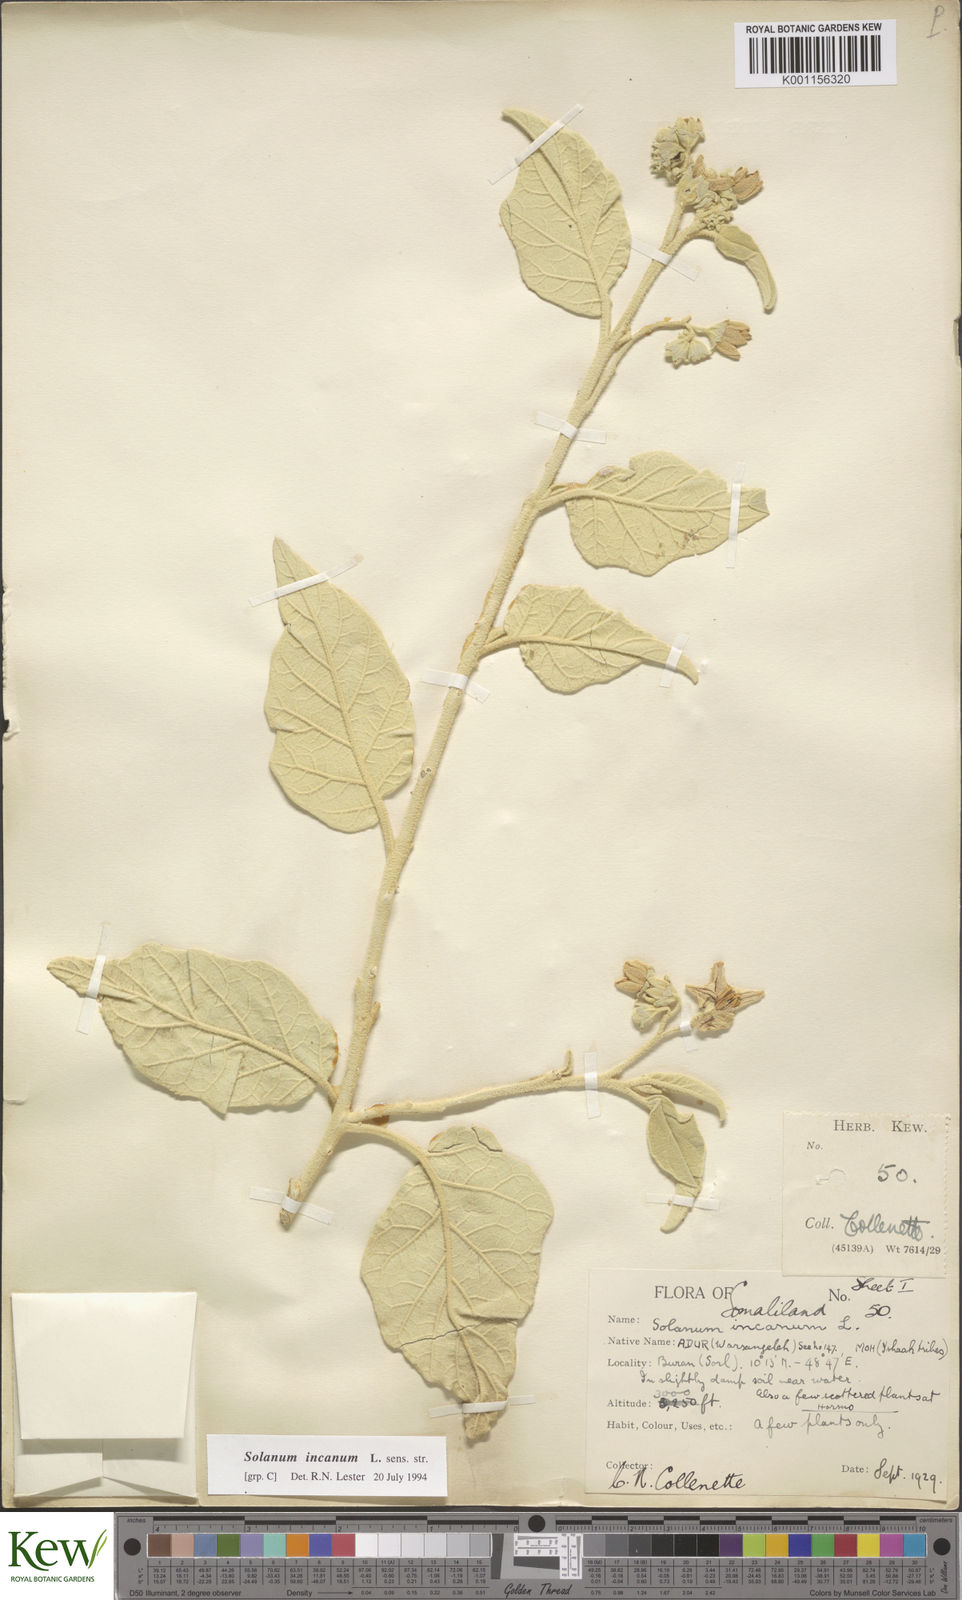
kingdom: Plantae
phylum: Tracheophyta
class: Magnoliopsida
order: Solanales
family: Solanaceae
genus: Solanum
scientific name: Solanum incanum
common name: Bitter apple
